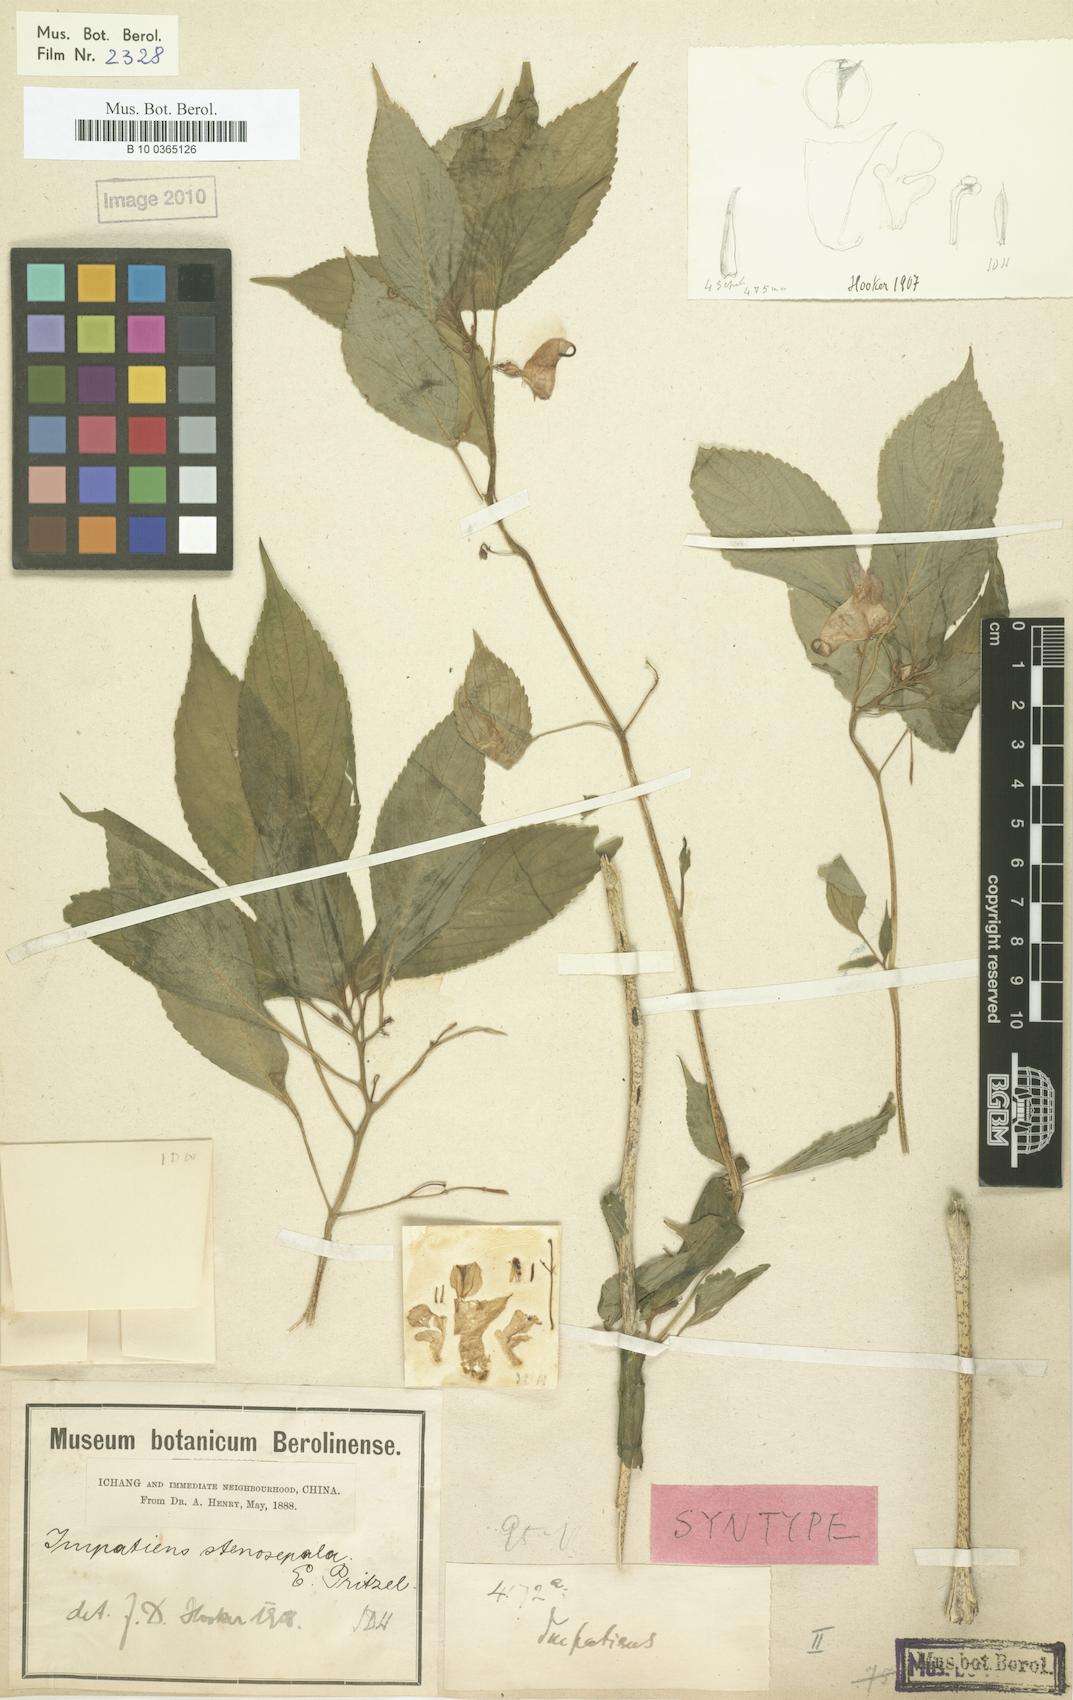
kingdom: Plantae
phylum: Tracheophyta
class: Magnoliopsida
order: Ericales
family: Balsaminaceae
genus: Impatiens
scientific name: Impatiens stenosepala
